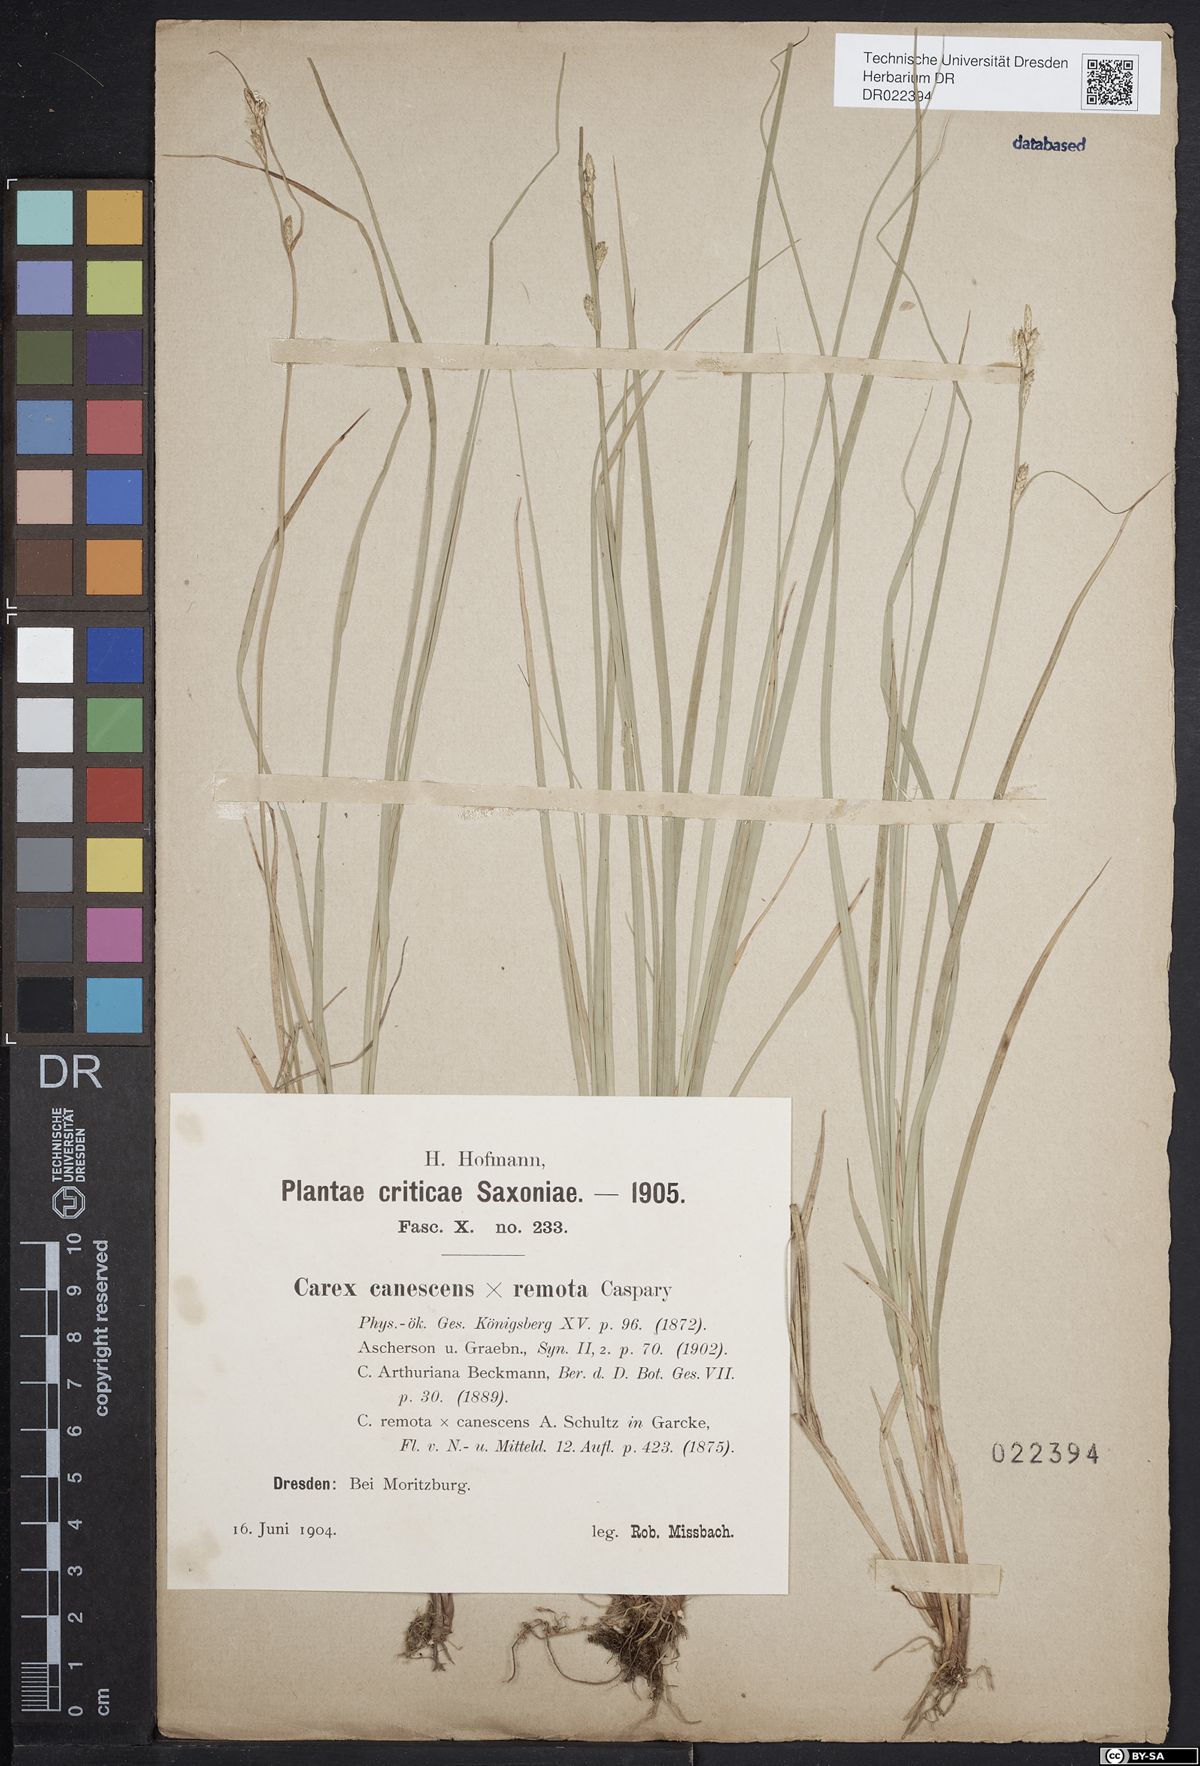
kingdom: Plantae
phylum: Tracheophyta
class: Liliopsida
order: Poales
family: Cyperaceae
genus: Carex
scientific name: Carex arthuriana
